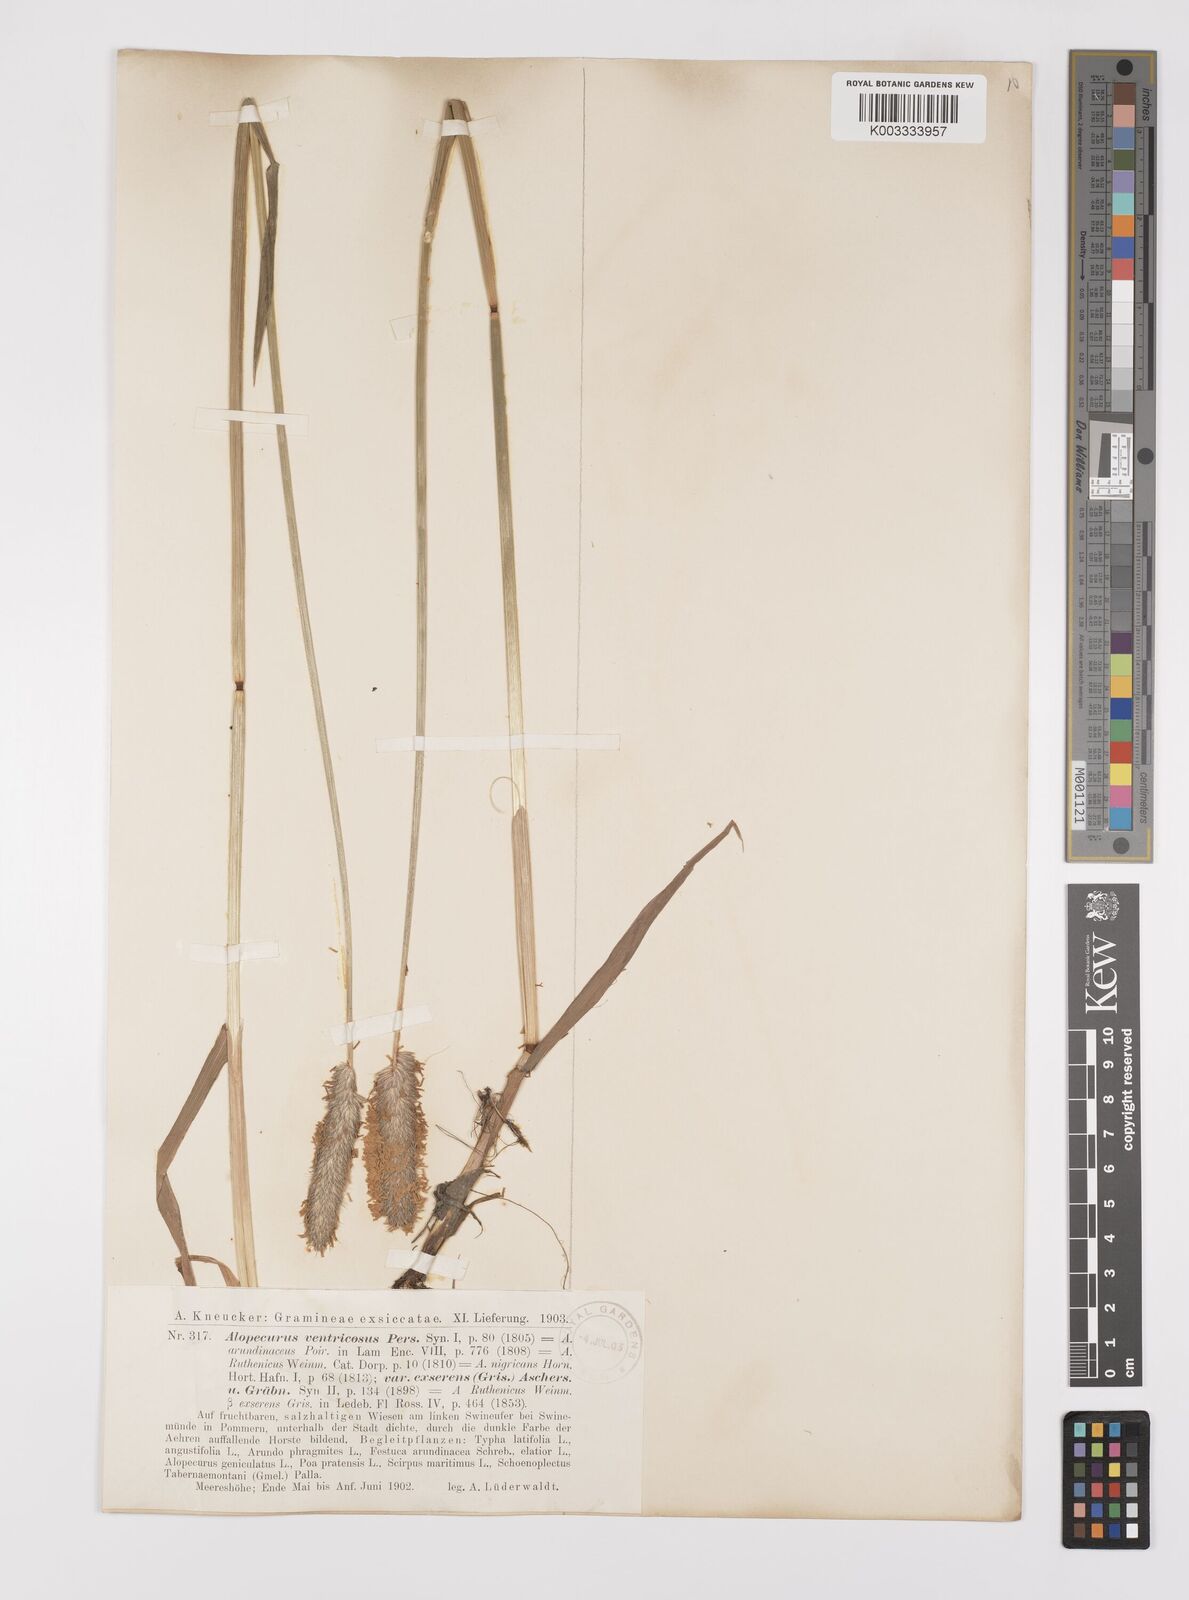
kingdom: Plantae
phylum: Tracheophyta
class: Liliopsida
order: Poales
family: Poaceae
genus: Alopecurus
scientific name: Alopecurus arundinaceus
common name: Creeping meadow foxtail
